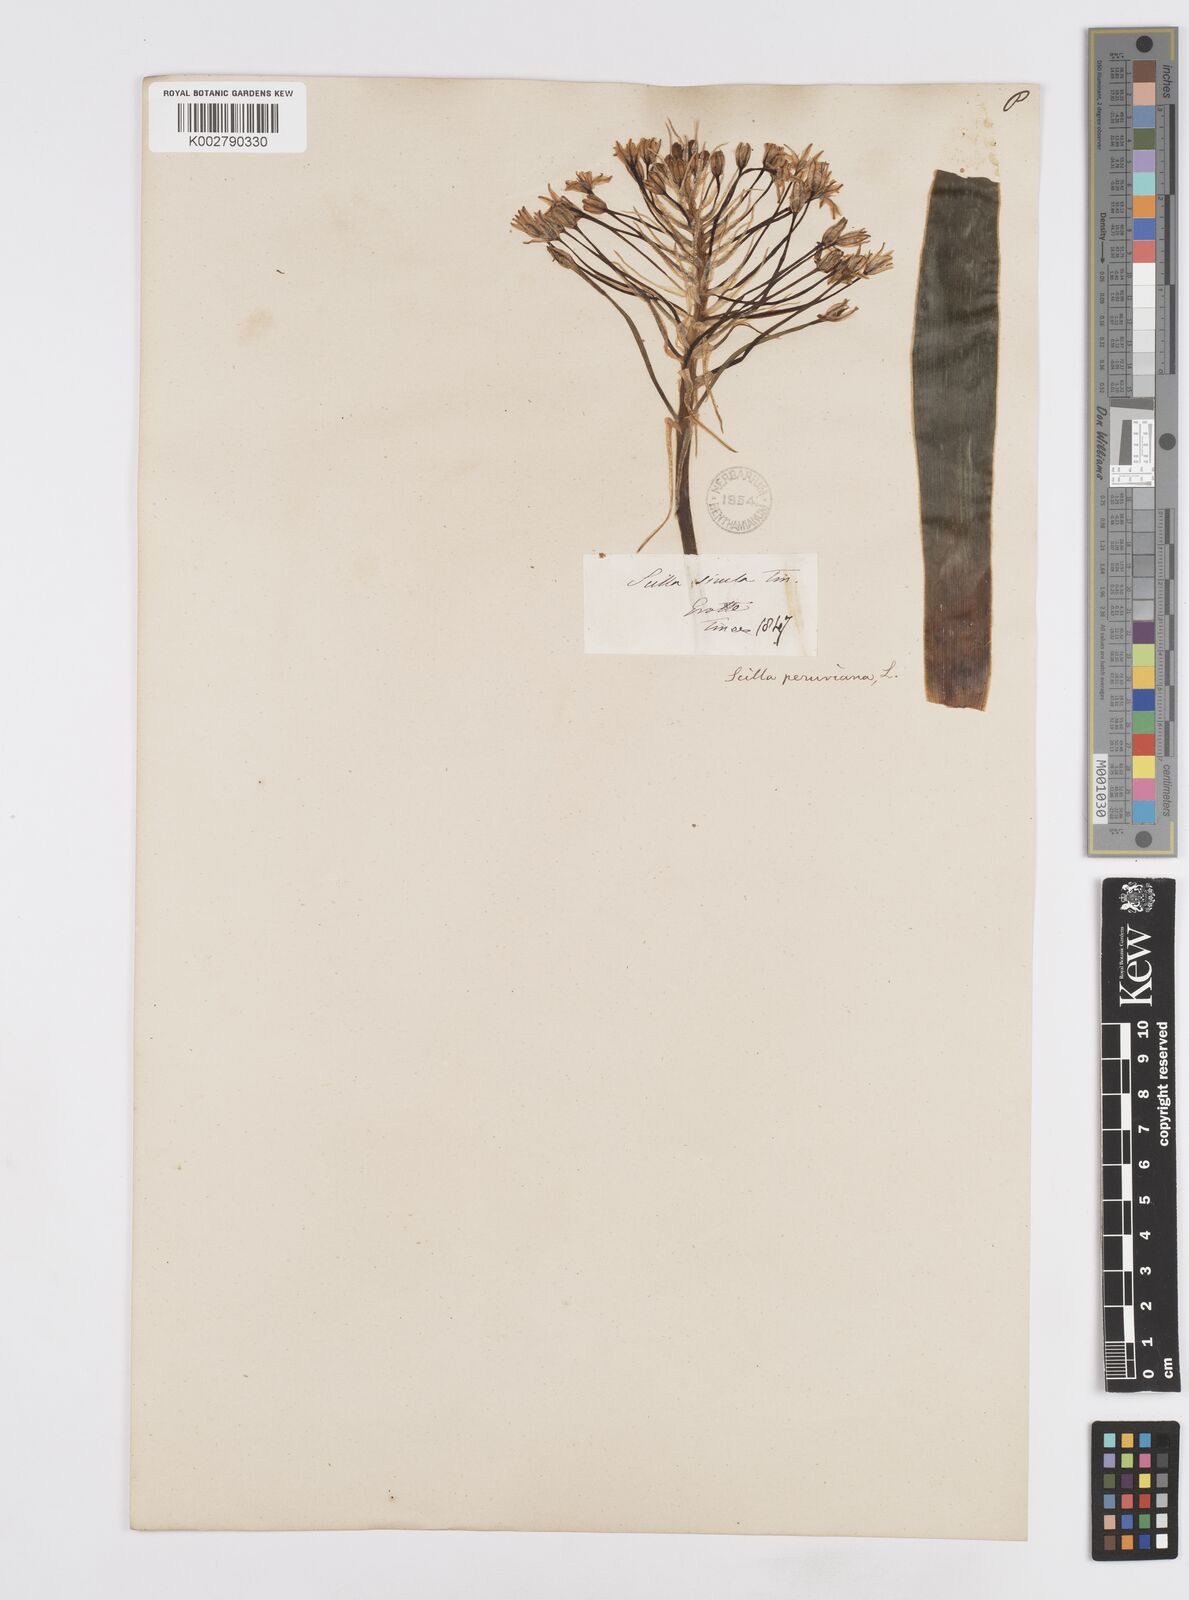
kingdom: Plantae
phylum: Tracheophyta
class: Liliopsida
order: Asparagales
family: Asparagaceae
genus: Scilla
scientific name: Scilla peruviana
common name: Portuguese squill
